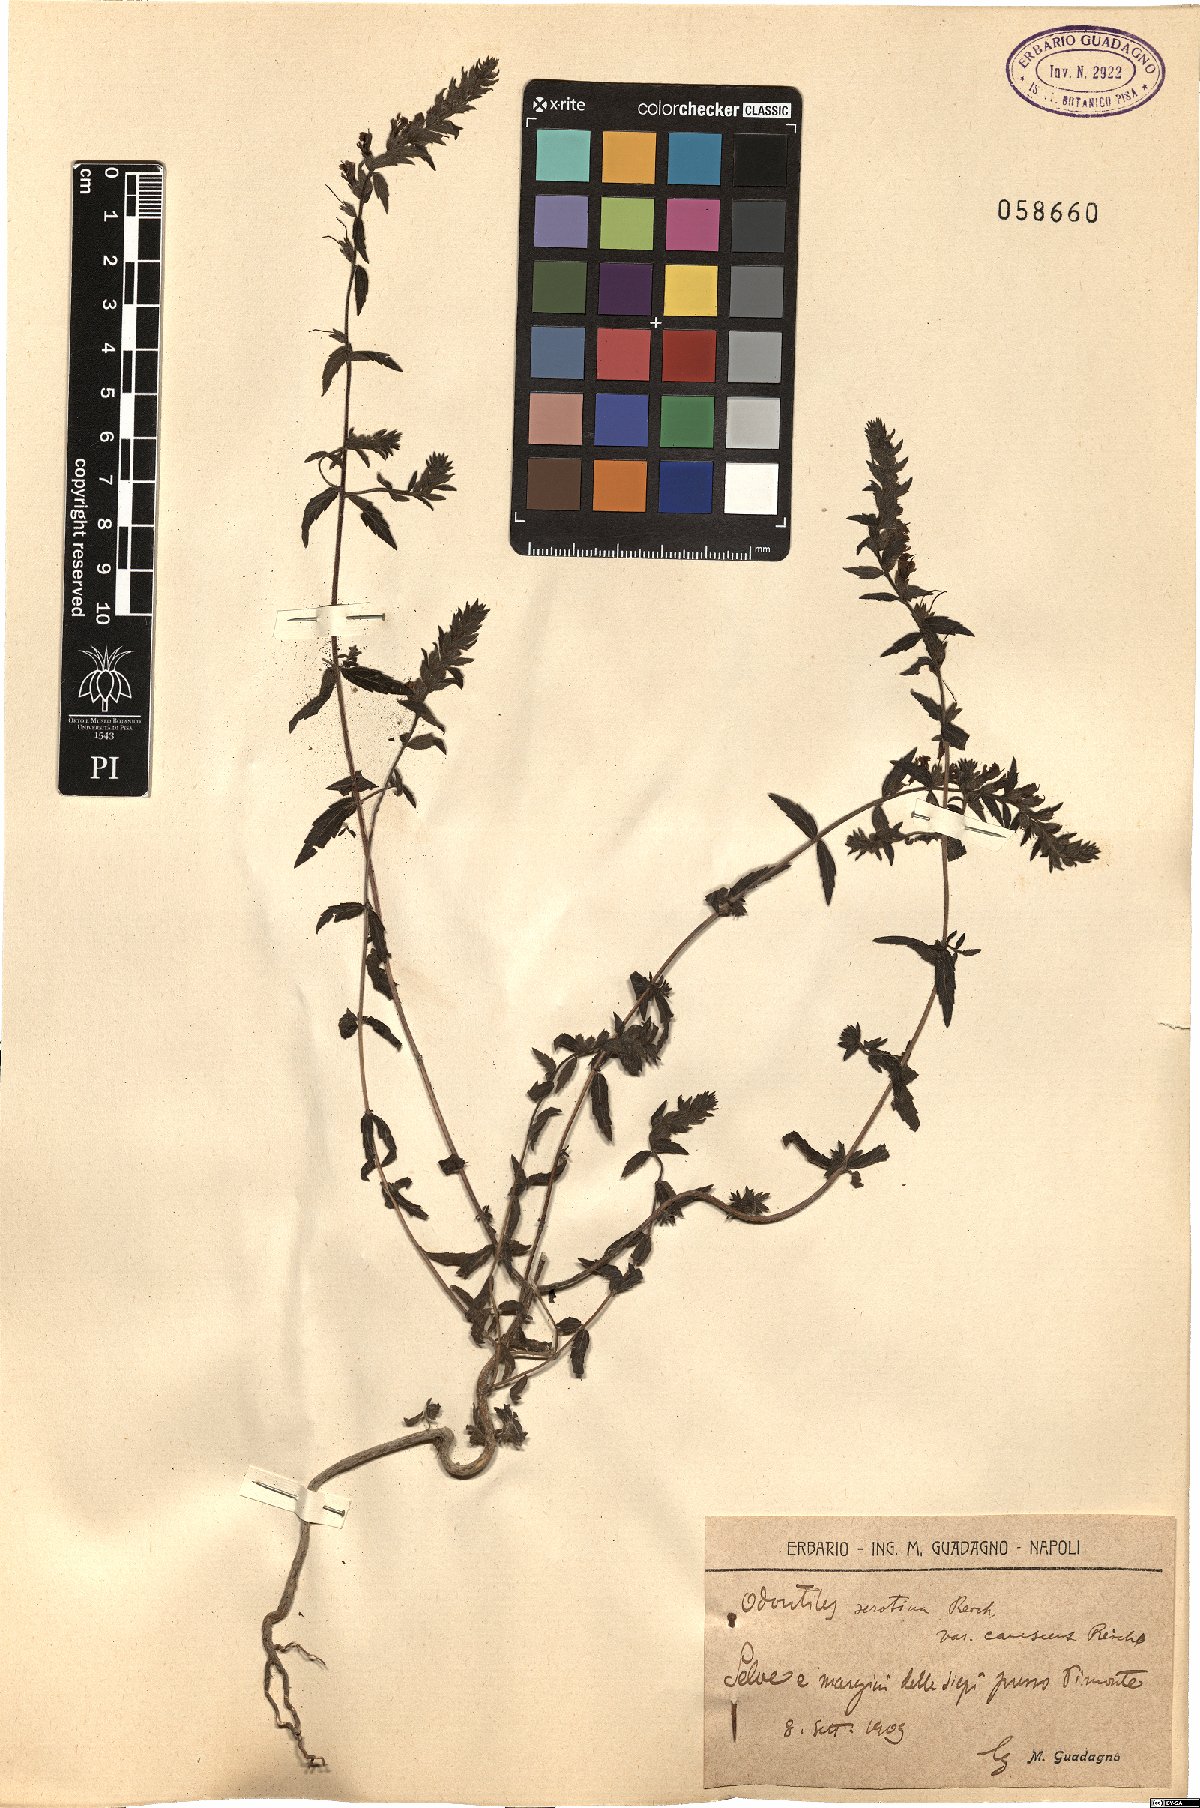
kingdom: Plantae
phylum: Tracheophyta
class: Magnoliopsida
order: Lamiales
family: Orobanchaceae
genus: Odontites
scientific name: Odontites vernus
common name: Red bartsia
